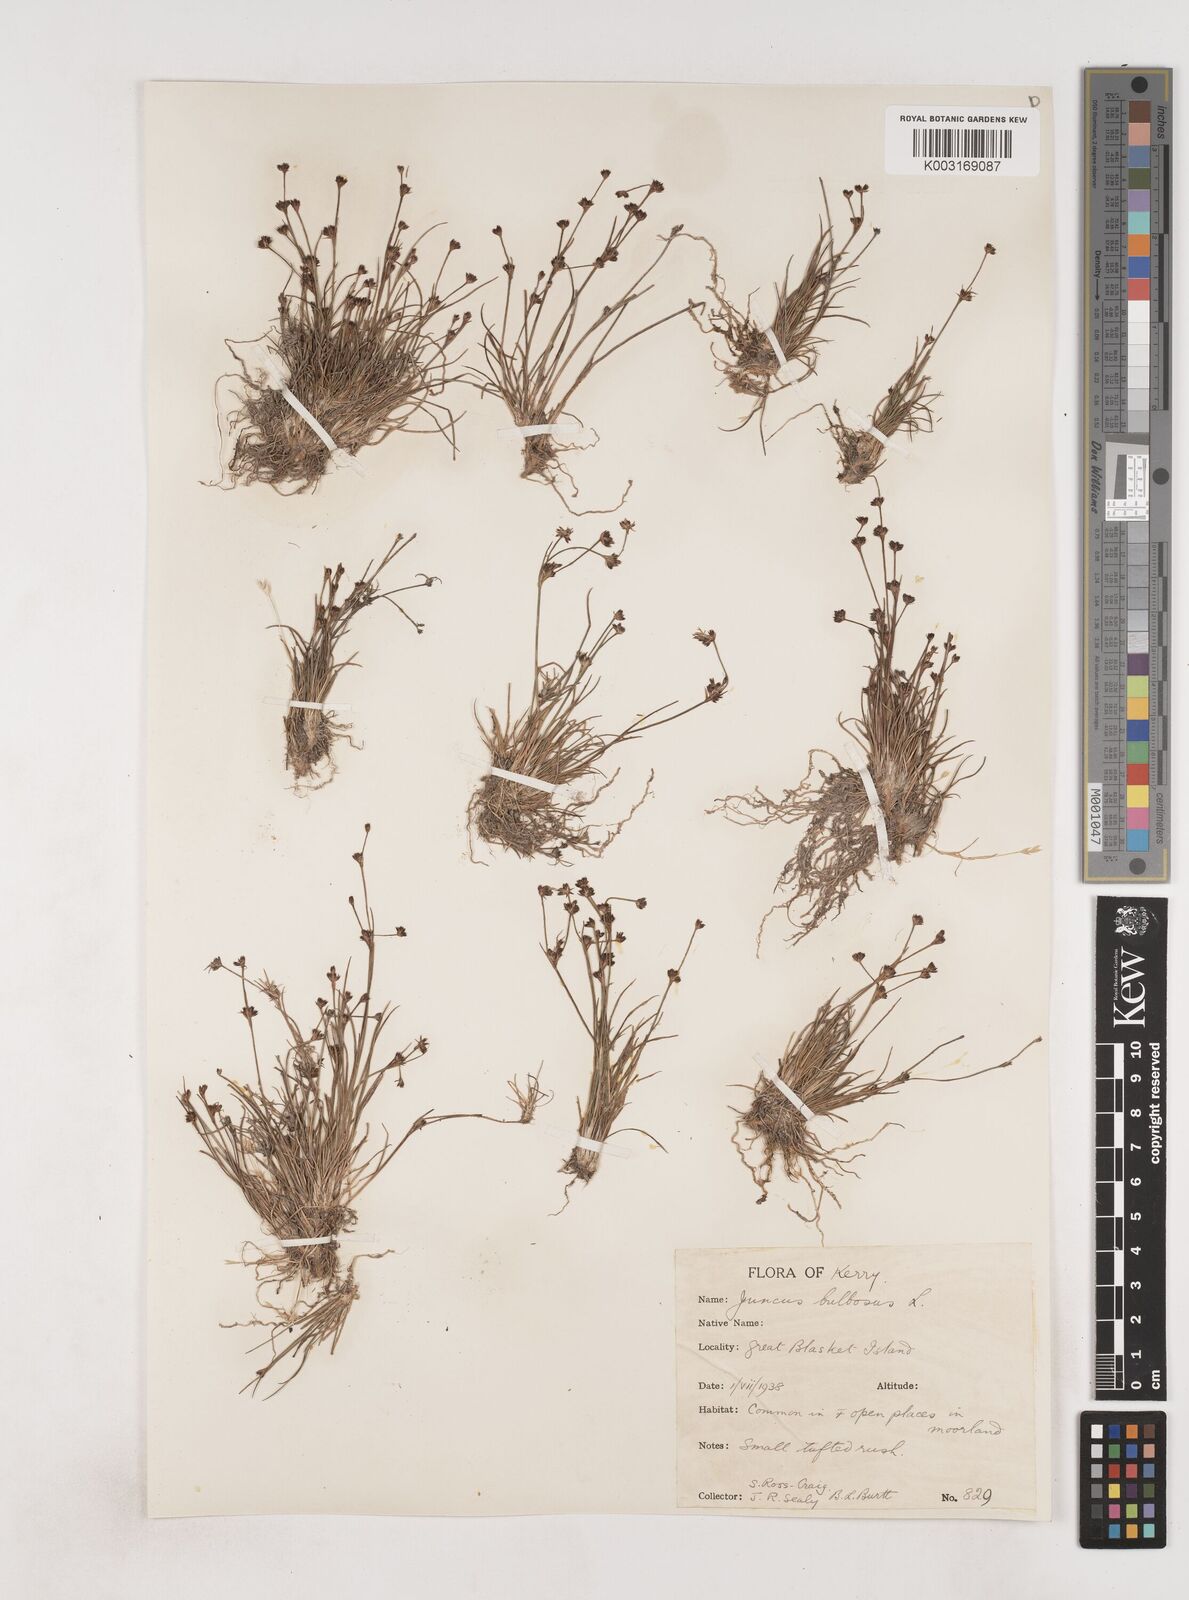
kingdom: Plantae
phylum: Tracheophyta
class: Liliopsida
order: Poales
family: Juncaceae
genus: Juncus
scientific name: Juncus bulbosus
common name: Bulbous rush
